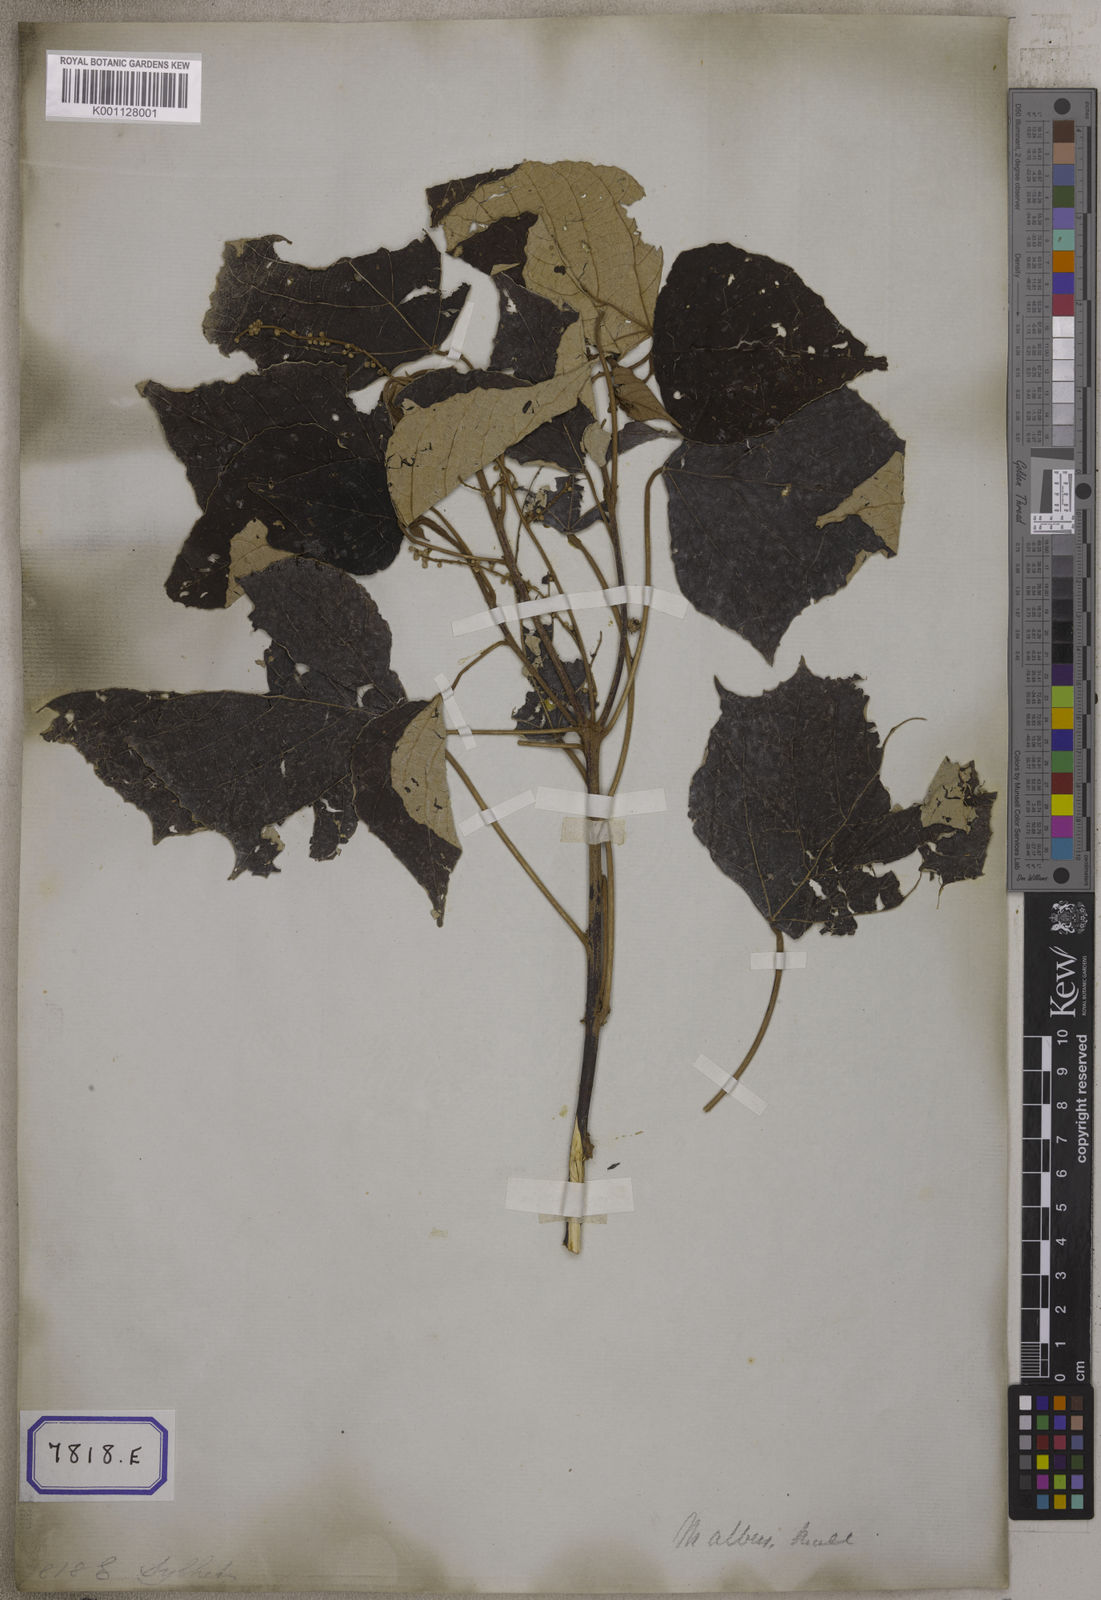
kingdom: Plantae
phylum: Tracheophyta
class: Magnoliopsida
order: Malpighiales
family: Euphorbiaceae
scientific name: Euphorbiaceae
